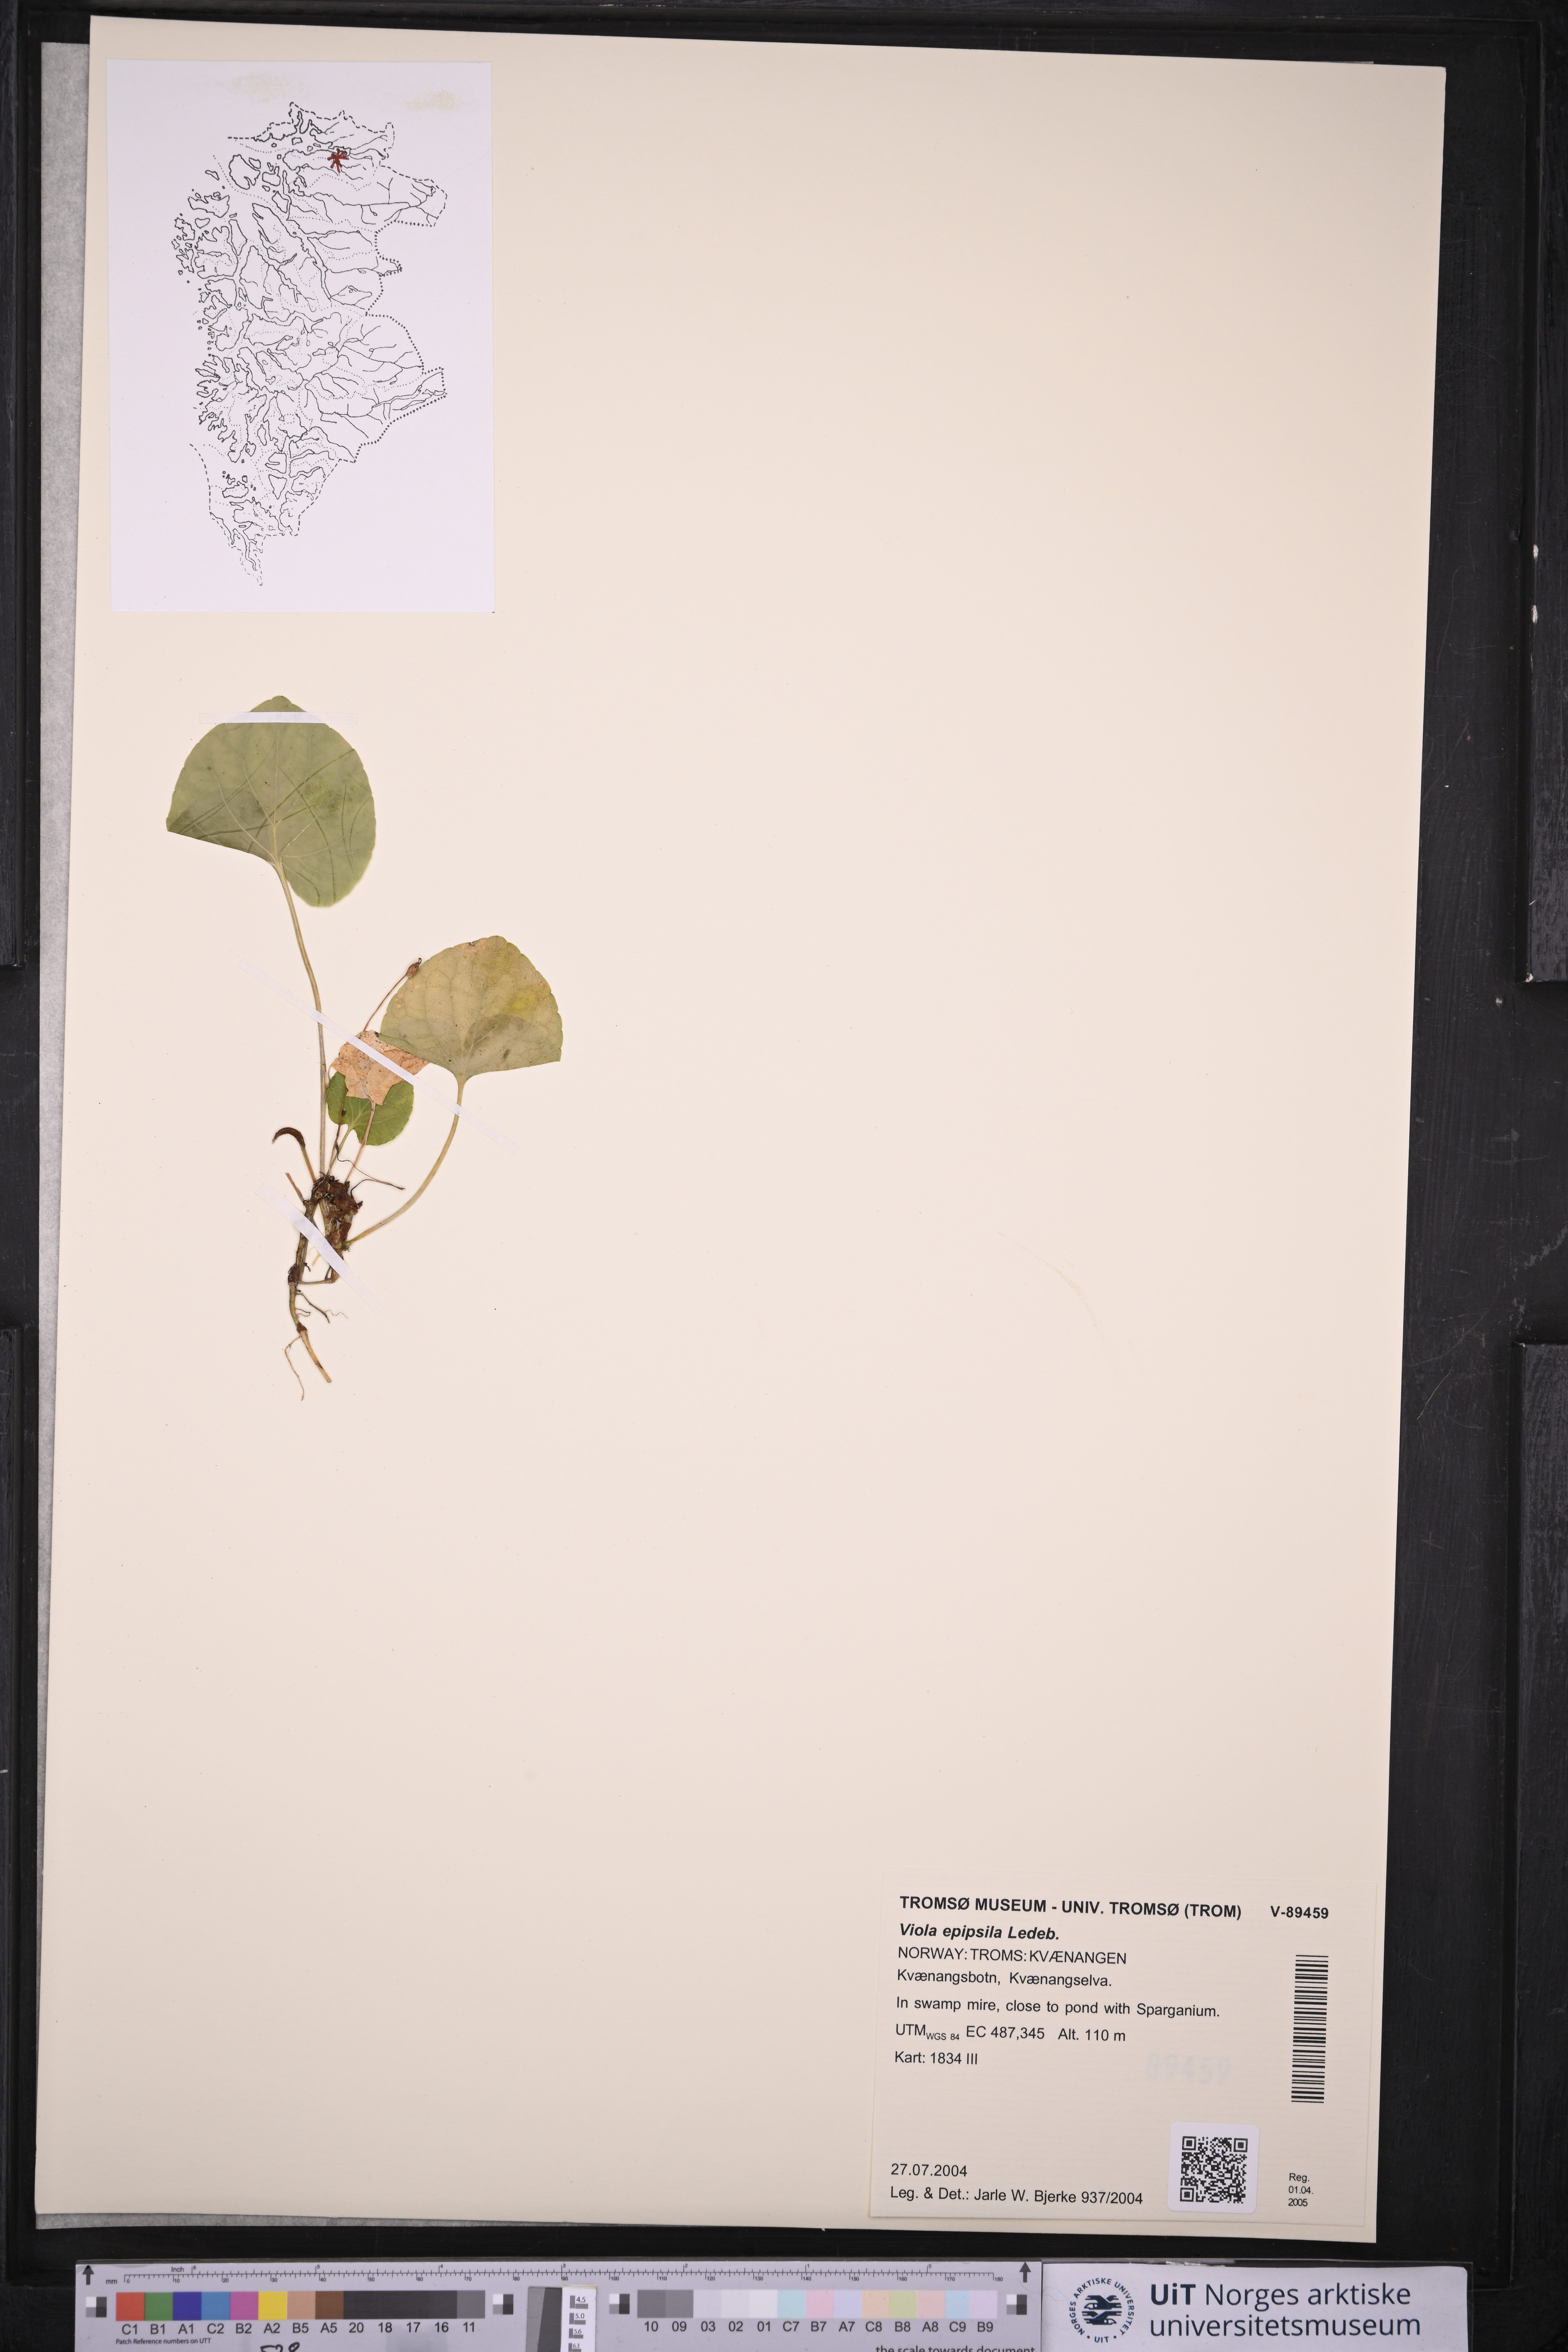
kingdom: Plantae
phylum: Tracheophyta
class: Magnoliopsida
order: Malpighiales
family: Violaceae
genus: Viola
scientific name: Viola epipsila
